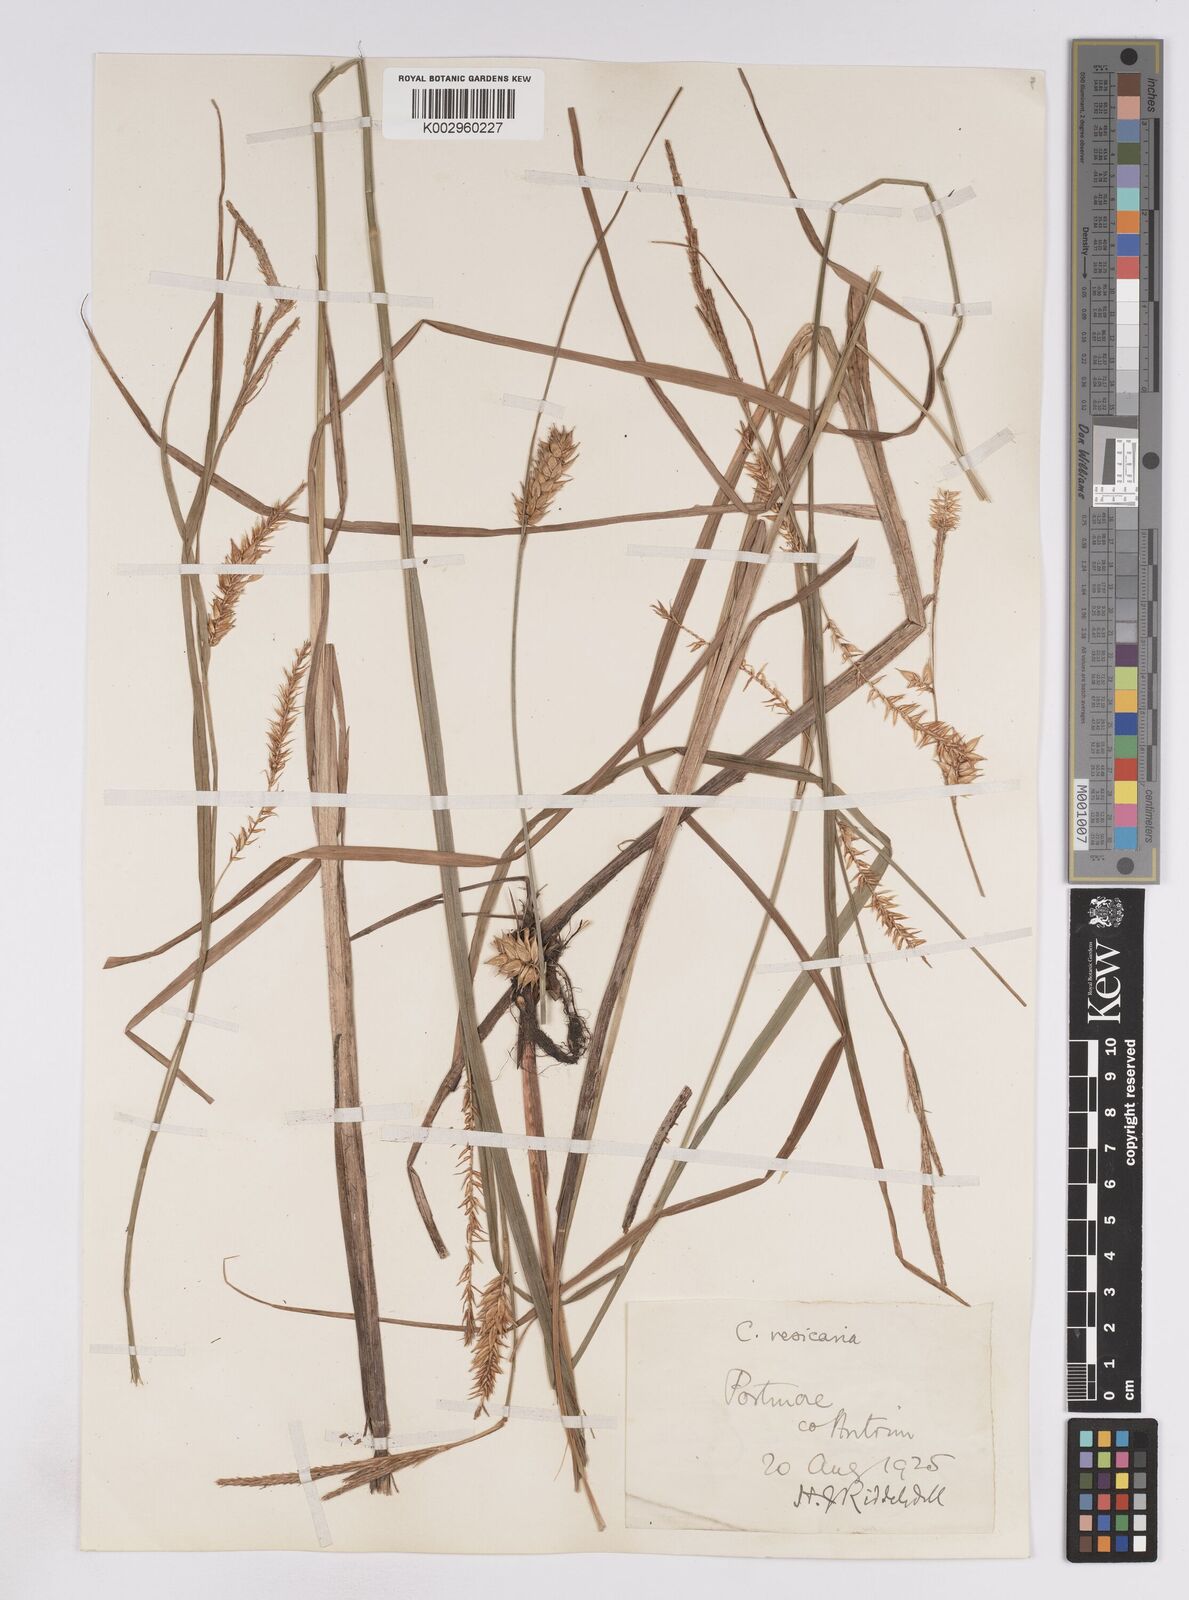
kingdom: Plantae
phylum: Tracheophyta
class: Liliopsida
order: Poales
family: Cyperaceae
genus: Carex
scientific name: Carex vesicaria
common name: Bladder-sedge
